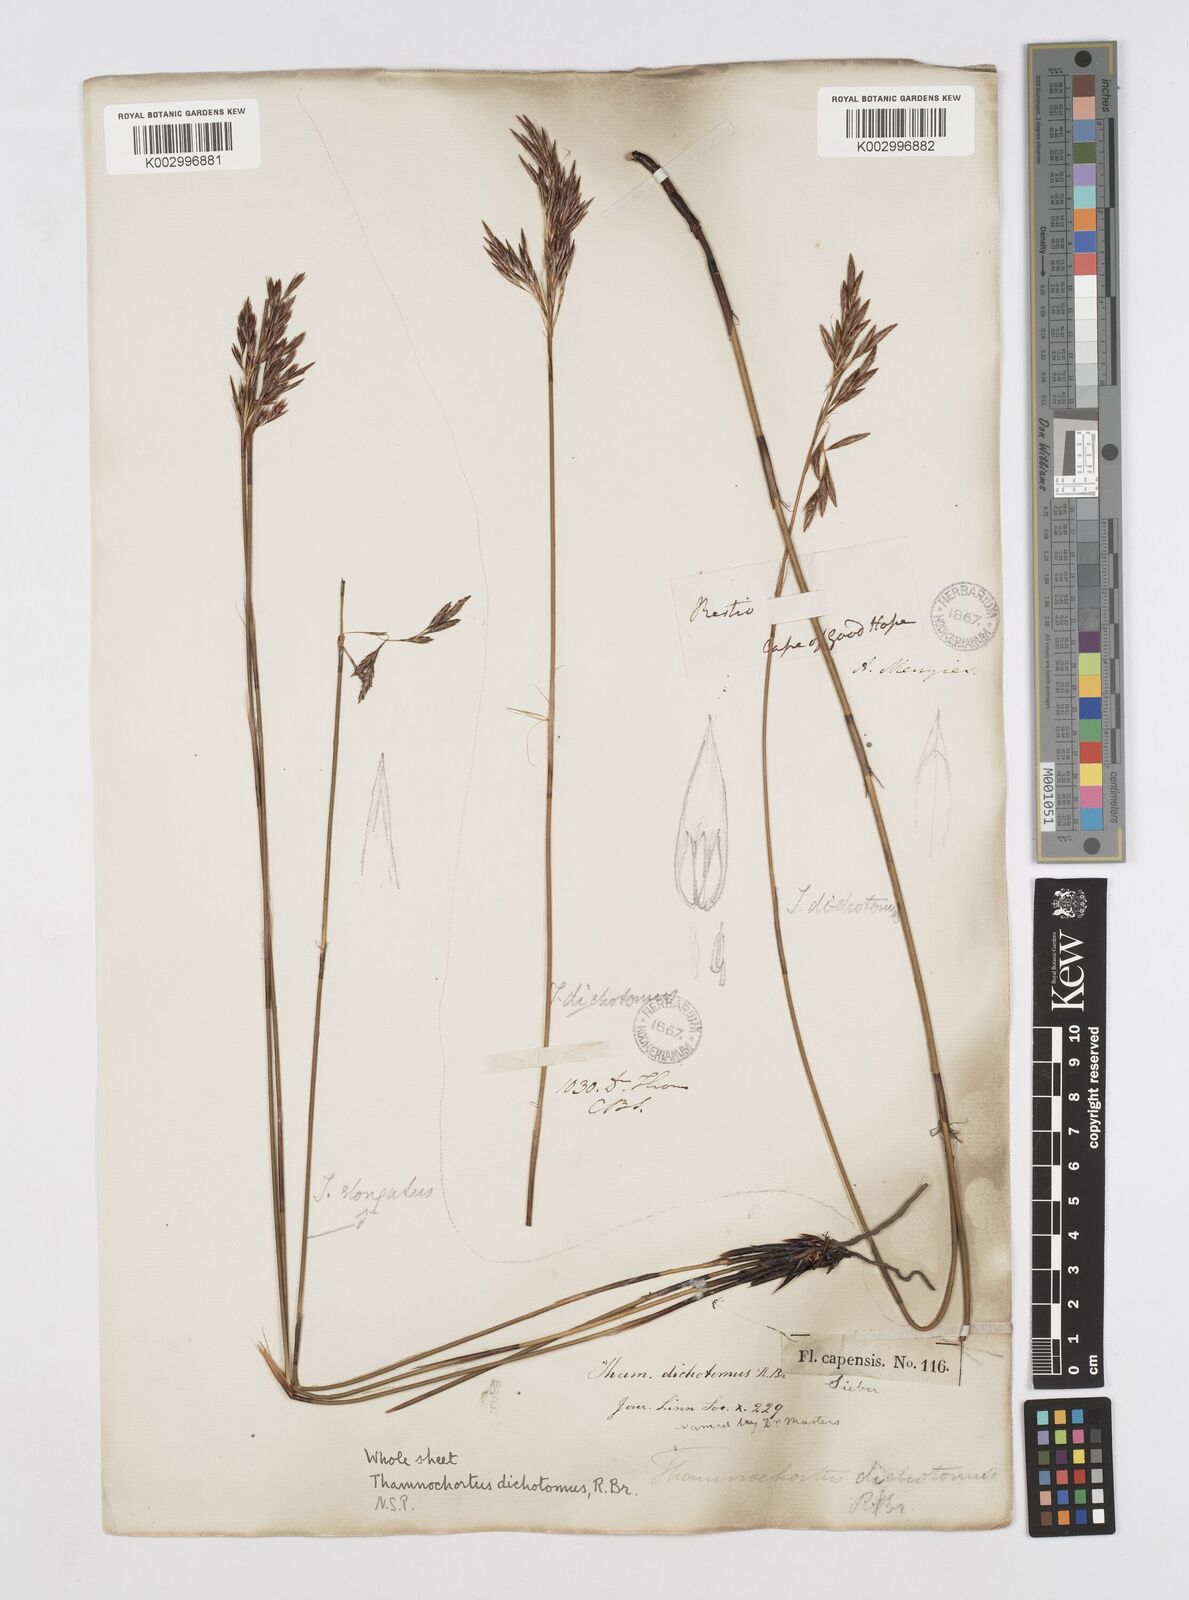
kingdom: Plantae
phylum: Tracheophyta
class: Liliopsida
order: Poales
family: Restionaceae
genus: Thamnochortus
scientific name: Thamnochortus lucens
